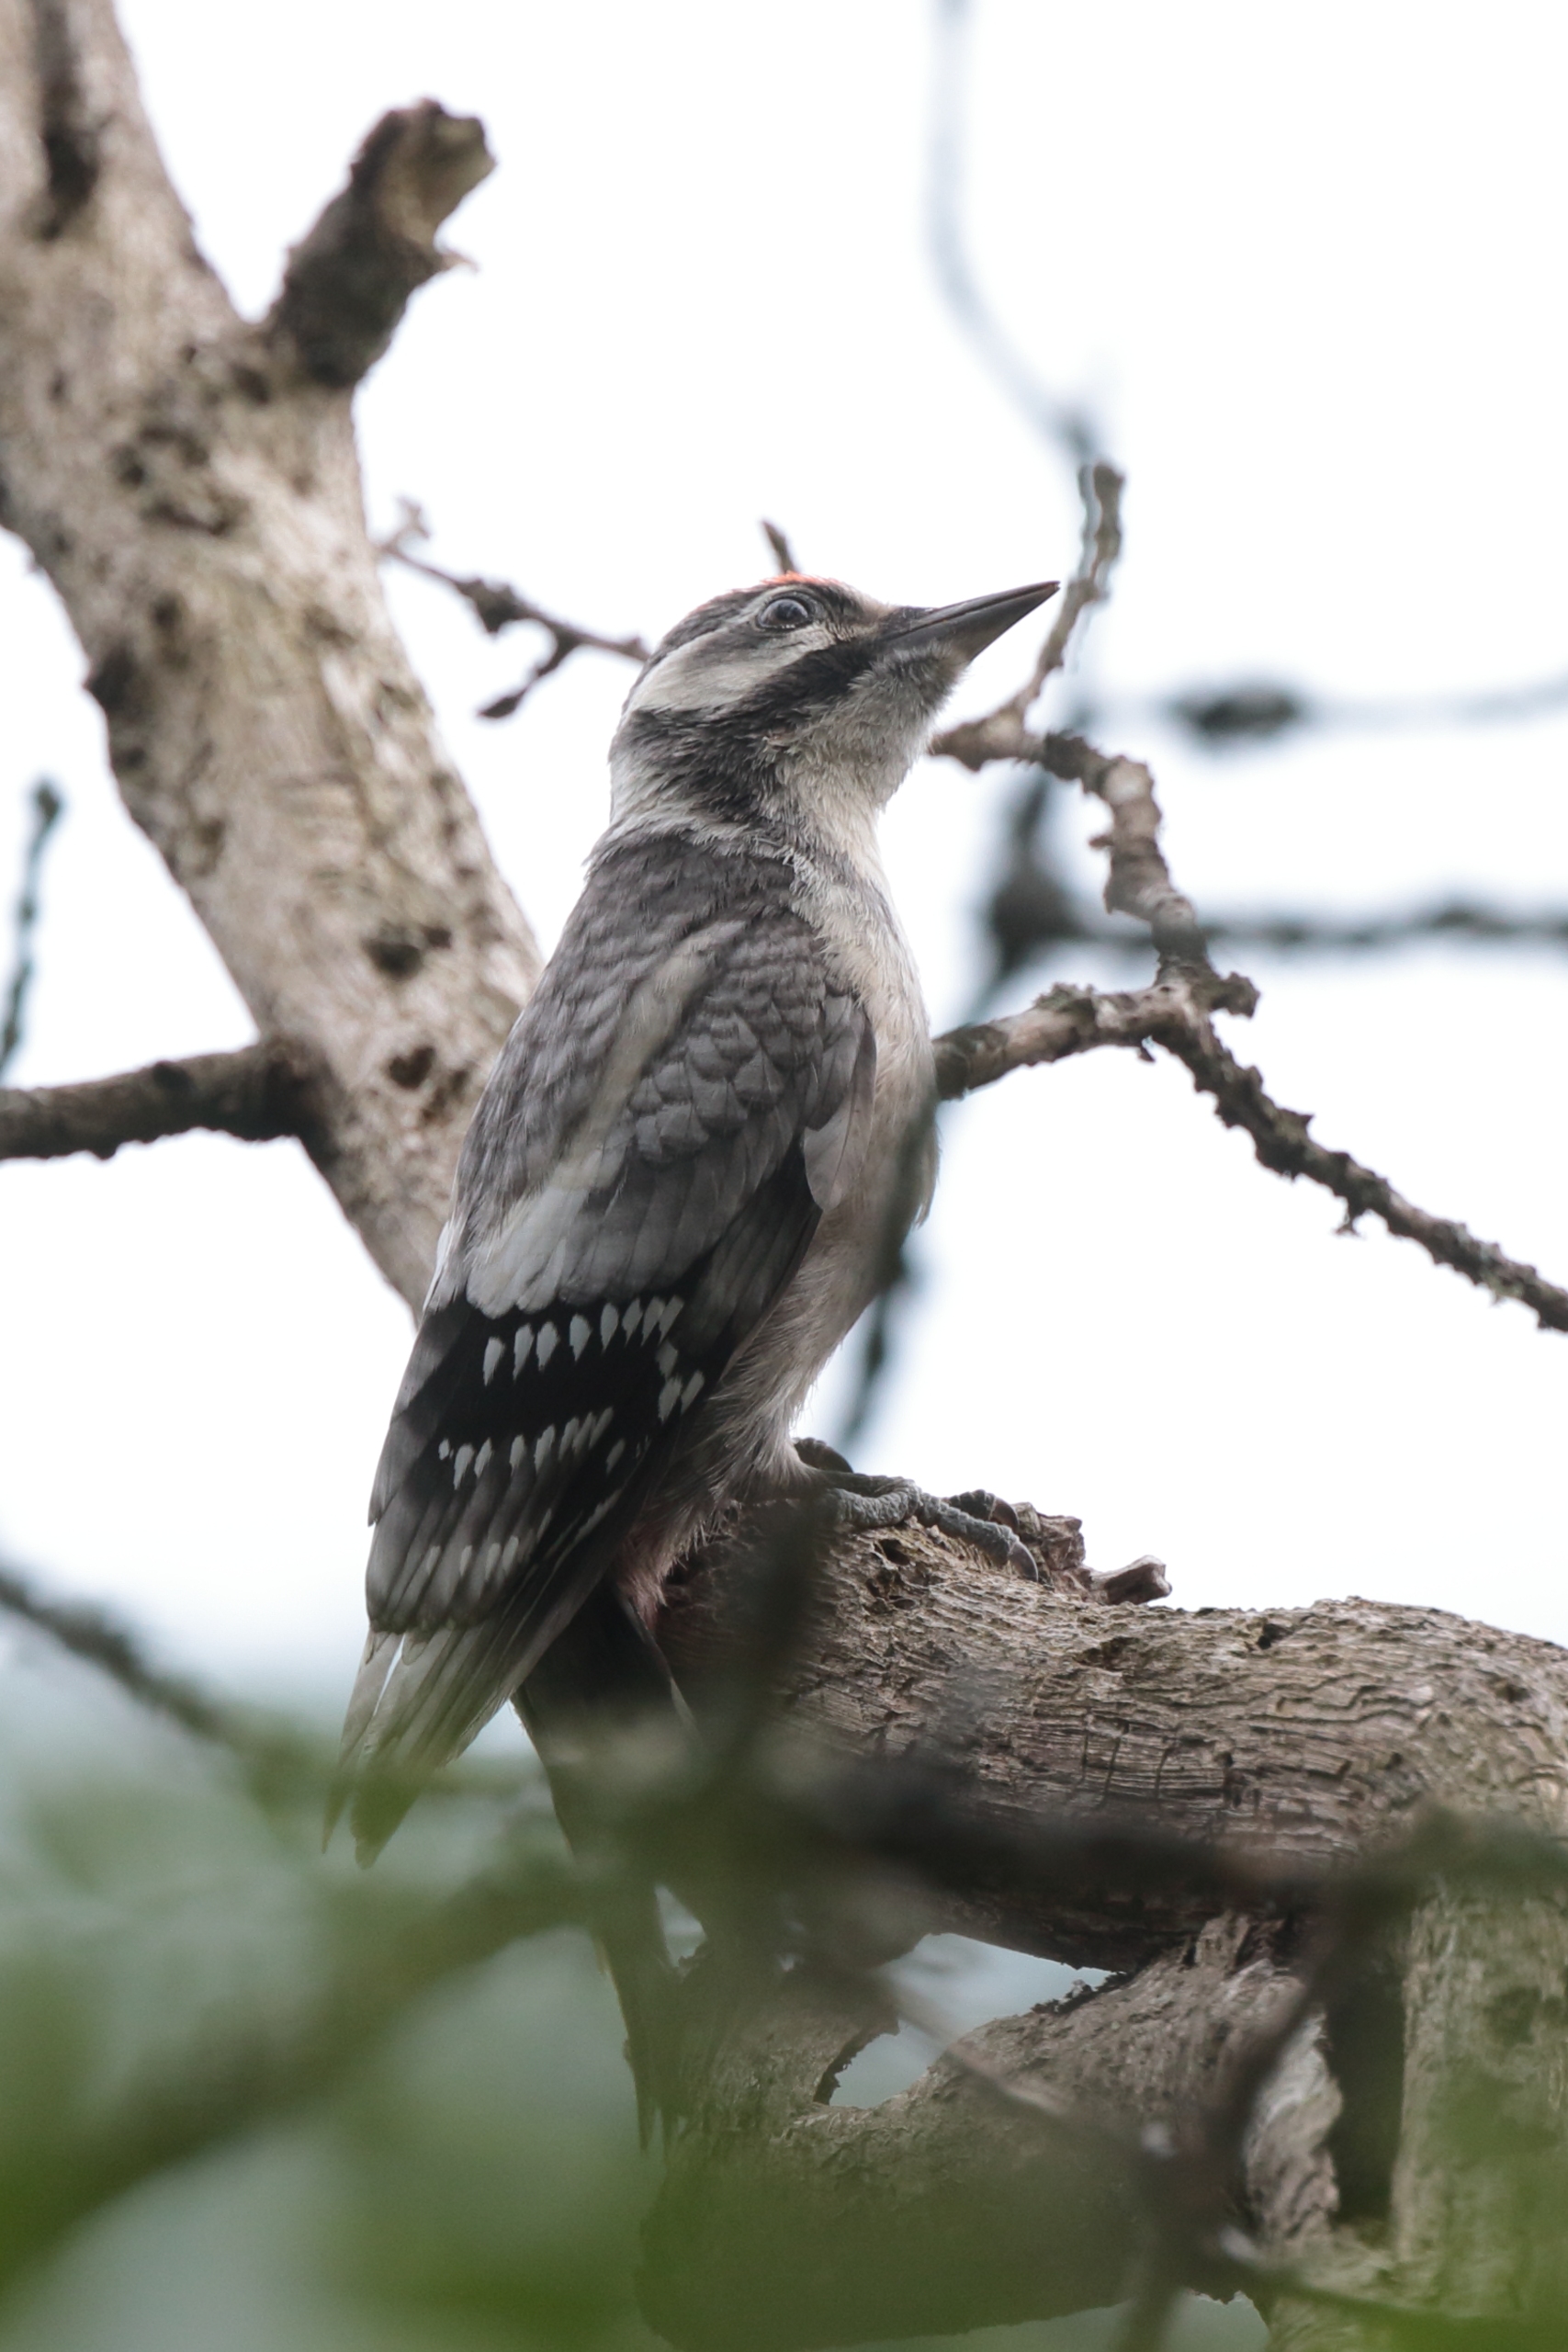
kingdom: Animalia
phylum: Chordata
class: Aves
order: Piciformes
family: Picidae
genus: Dendrocopos
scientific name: Dendrocopos major
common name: Stor flagspætte
